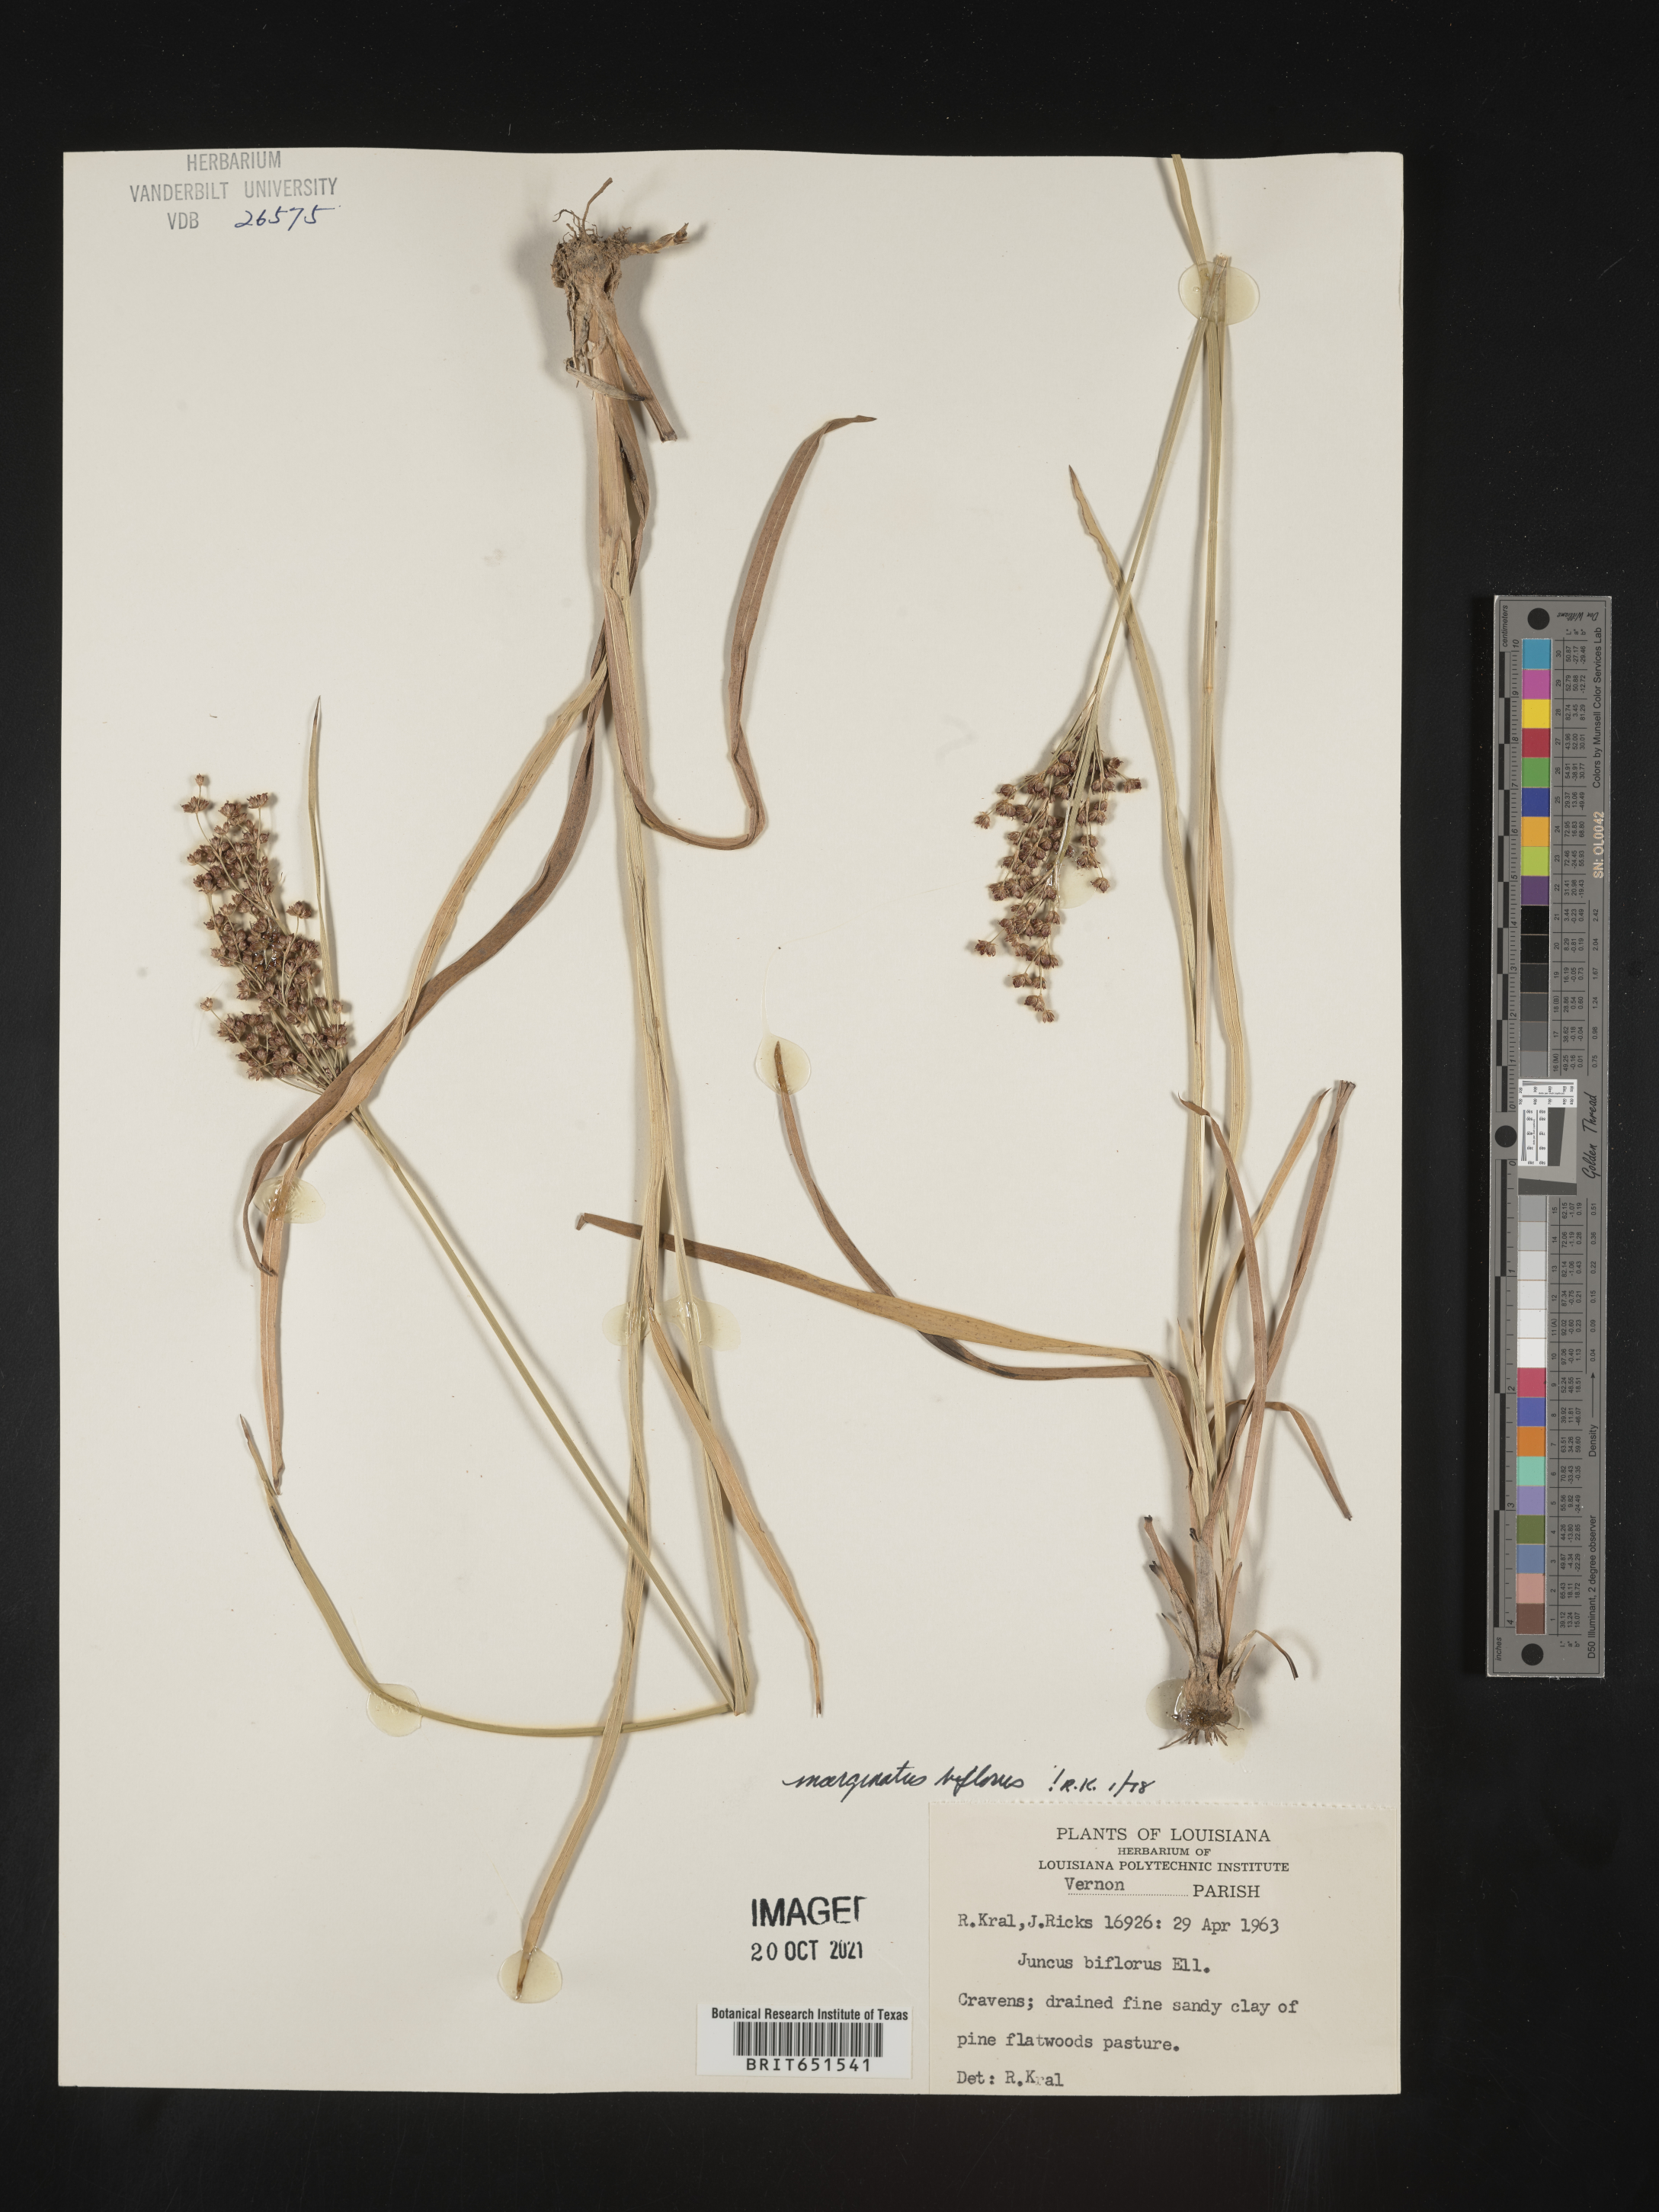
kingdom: Plantae
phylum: Tracheophyta
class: Liliopsida
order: Poales
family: Juncaceae
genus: Juncus
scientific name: Juncus biflorus
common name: Two-flowered rush
